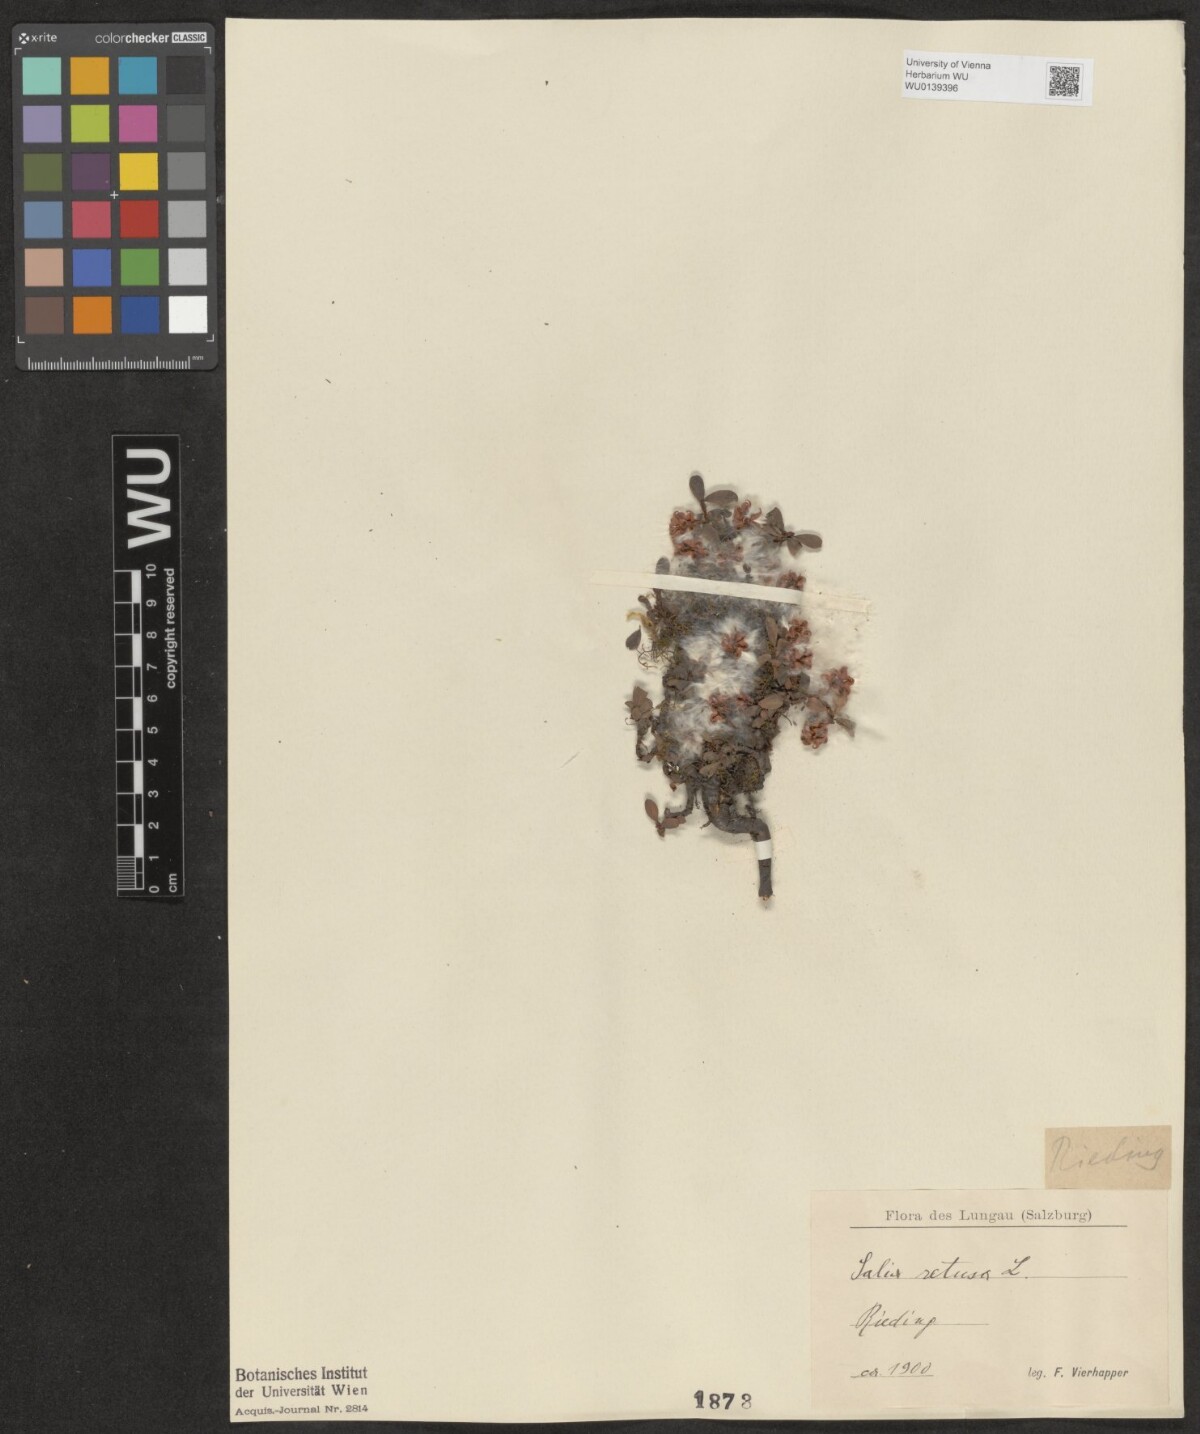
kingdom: Plantae
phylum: Tracheophyta
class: Magnoliopsida
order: Malpighiales
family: Salicaceae
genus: Salix
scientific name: Salix retusa
